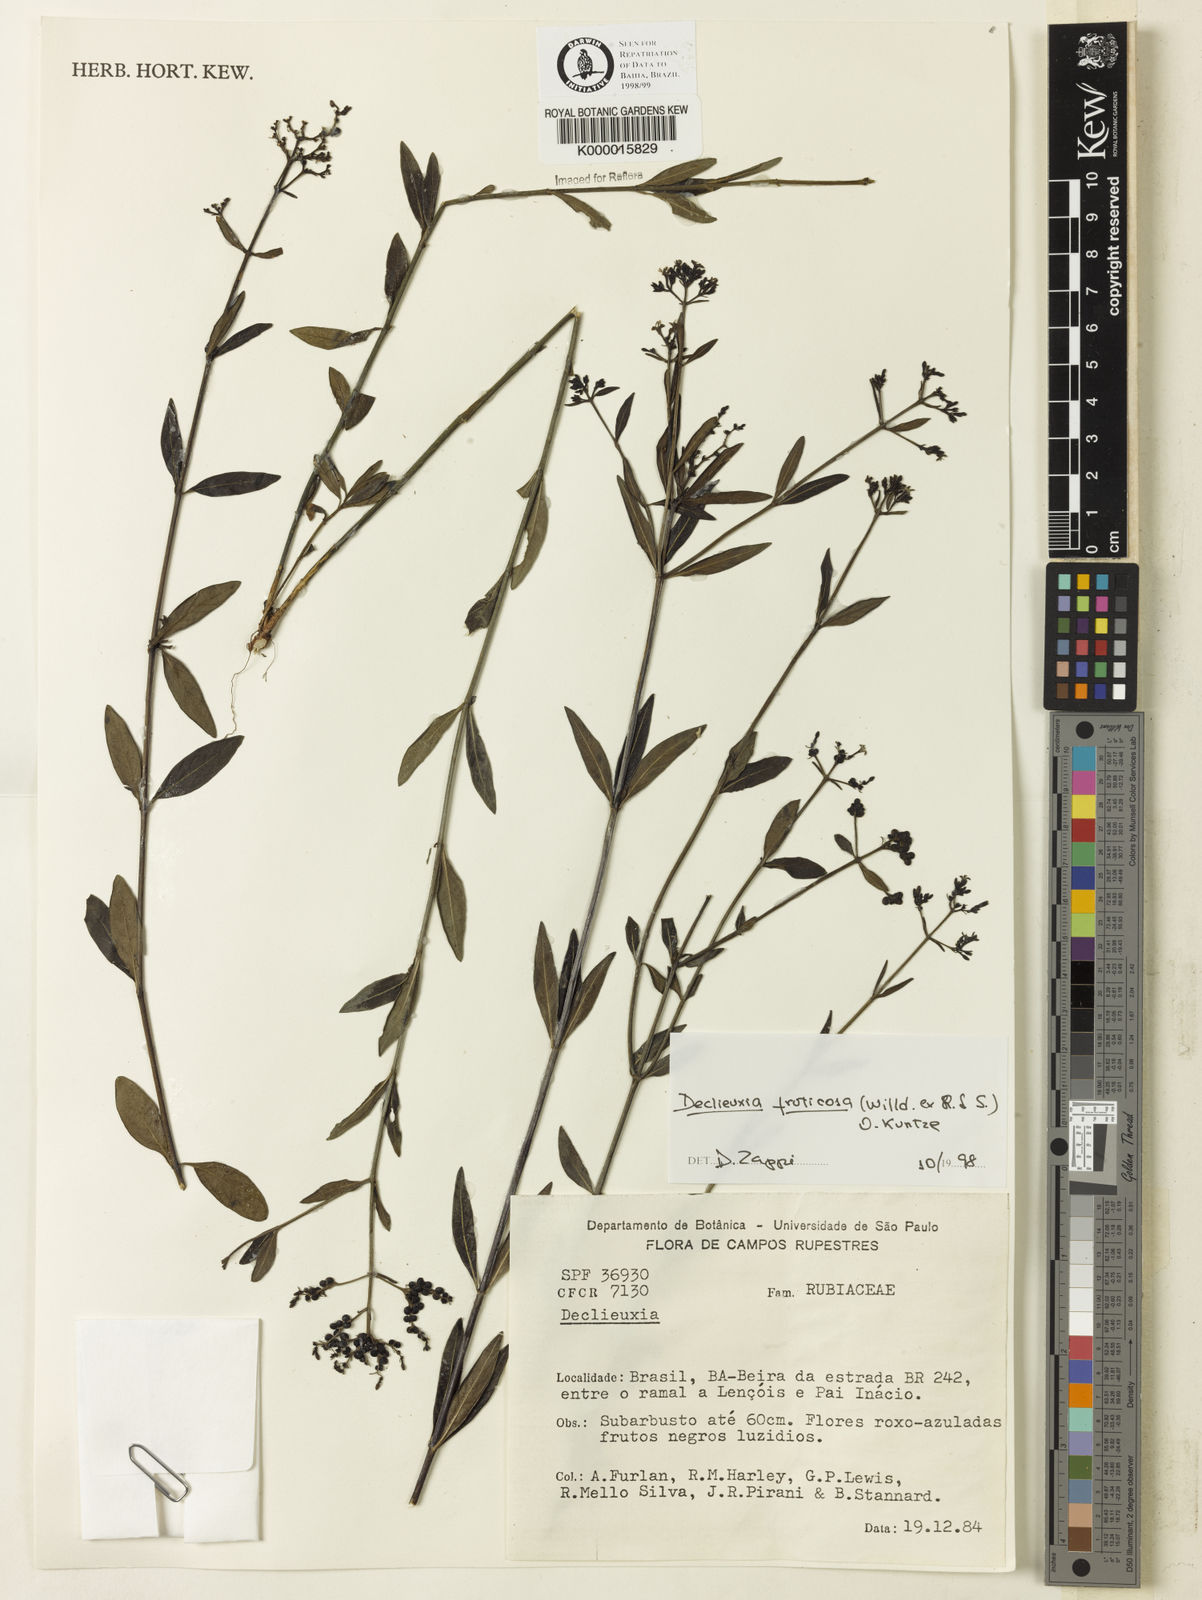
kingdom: Plantae
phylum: Tracheophyta
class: Magnoliopsida
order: Gentianales
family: Rubiaceae
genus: Declieuxia
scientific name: Declieuxia fruticosa
